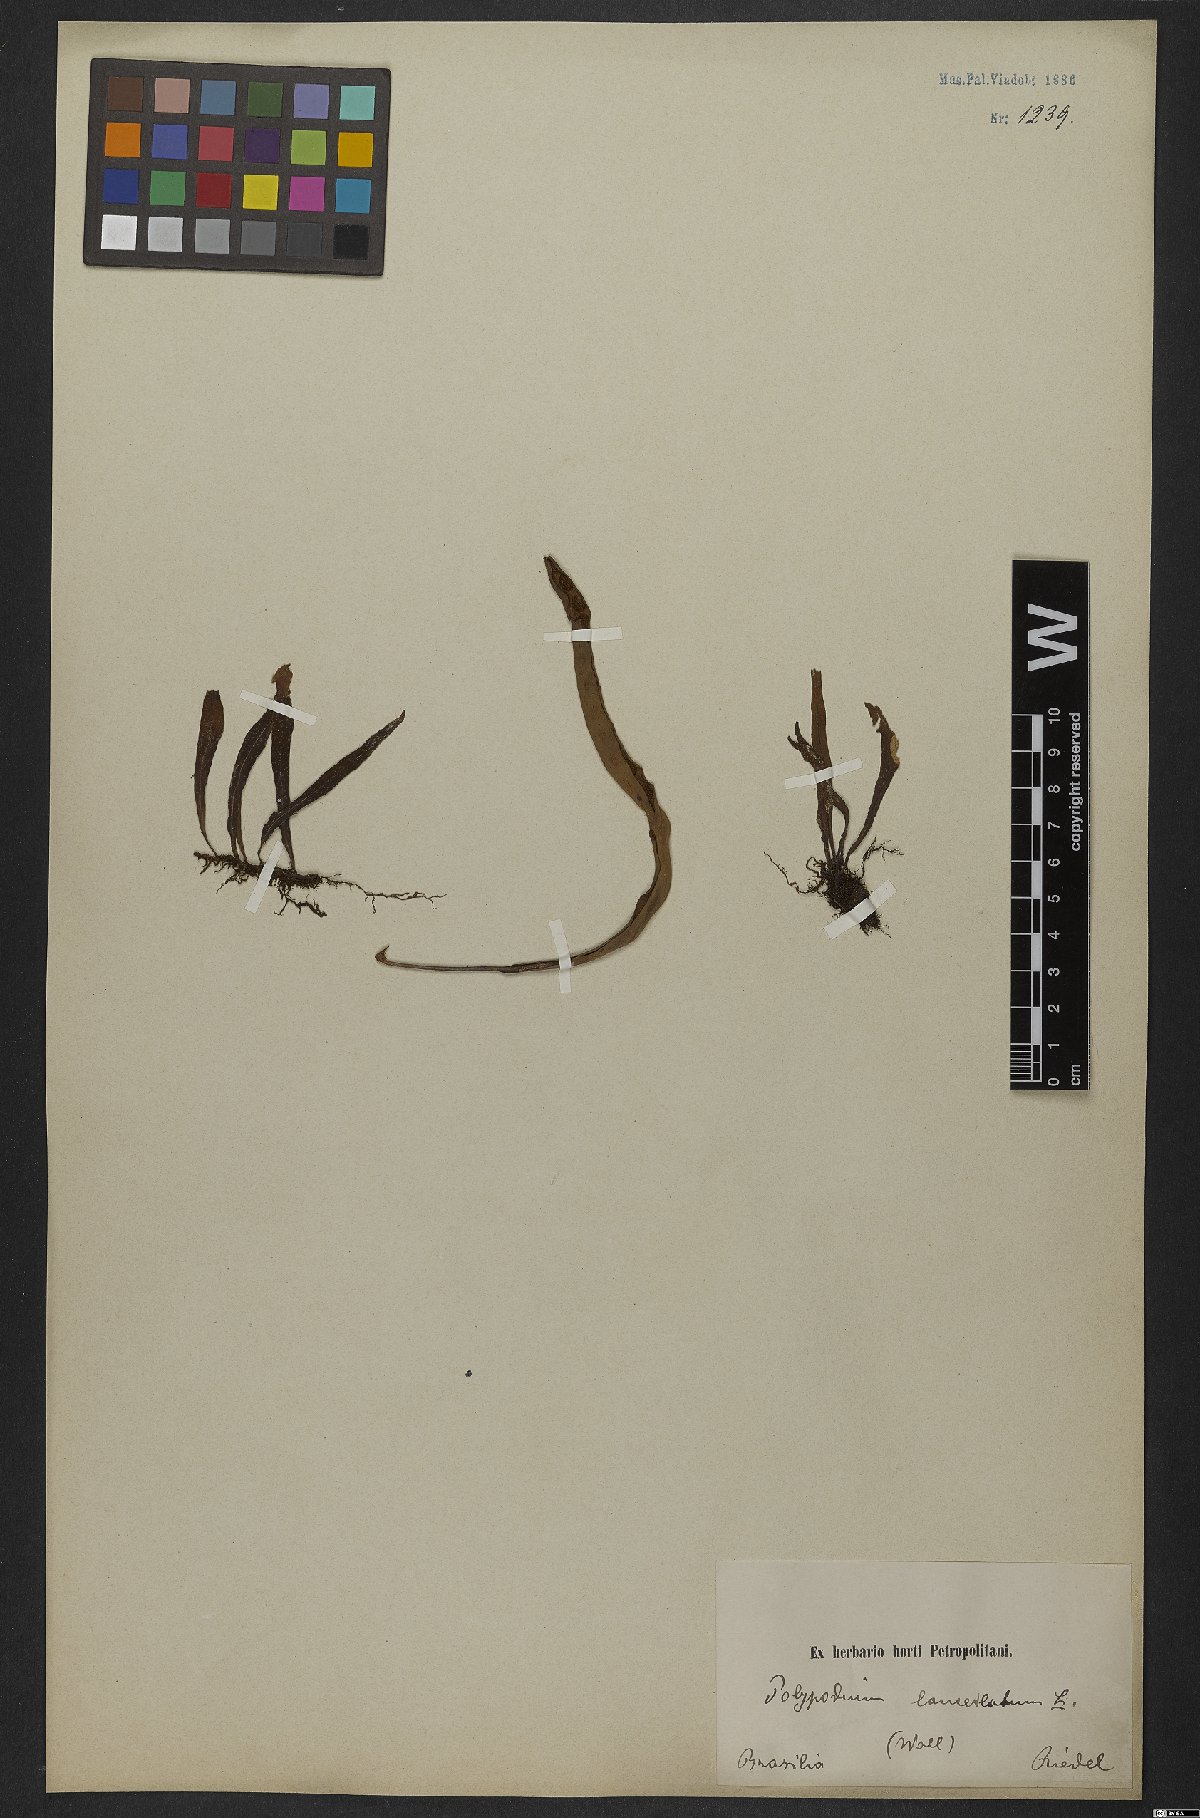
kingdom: Plantae
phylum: Tracheophyta
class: Polypodiopsida
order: Polypodiales
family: Polypodiaceae
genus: Pleopeltis
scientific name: Pleopeltis macrocarpa
